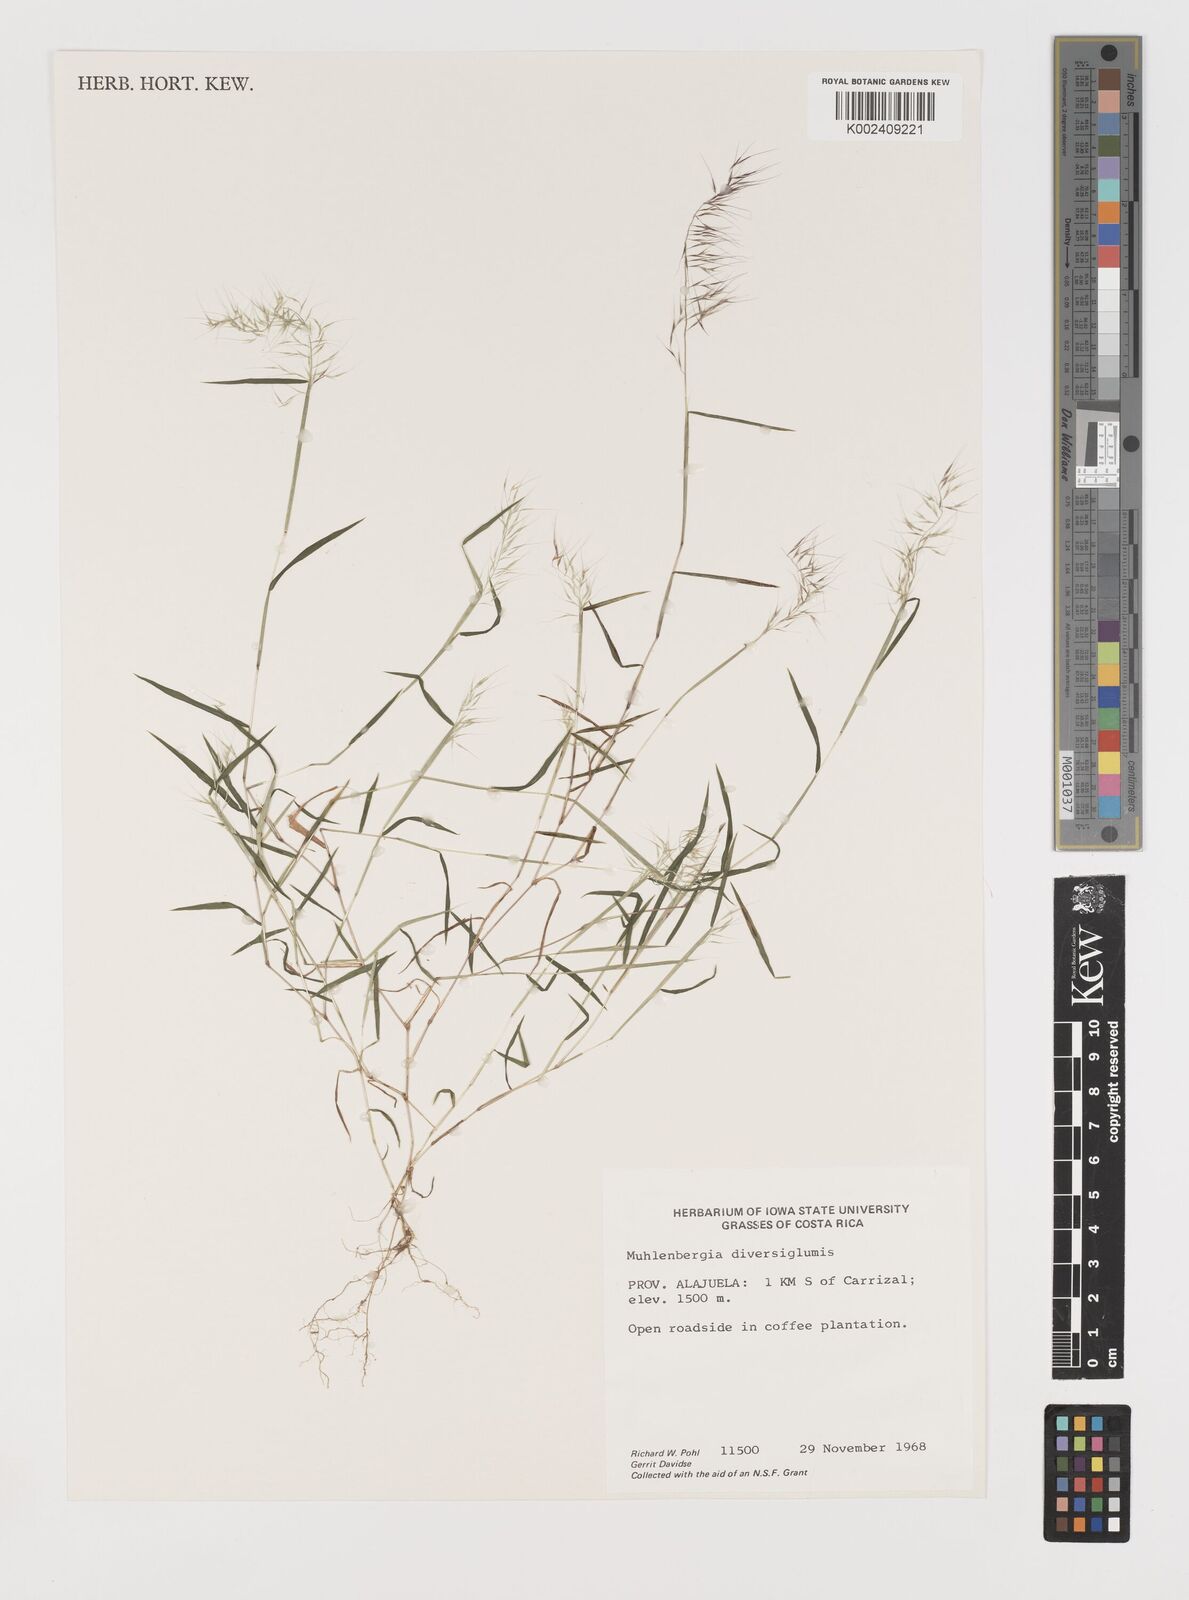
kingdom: Plantae
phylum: Tracheophyta
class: Liliopsida
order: Poales
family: Poaceae
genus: Muhlenbergia
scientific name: Muhlenbergia diversiglumis
